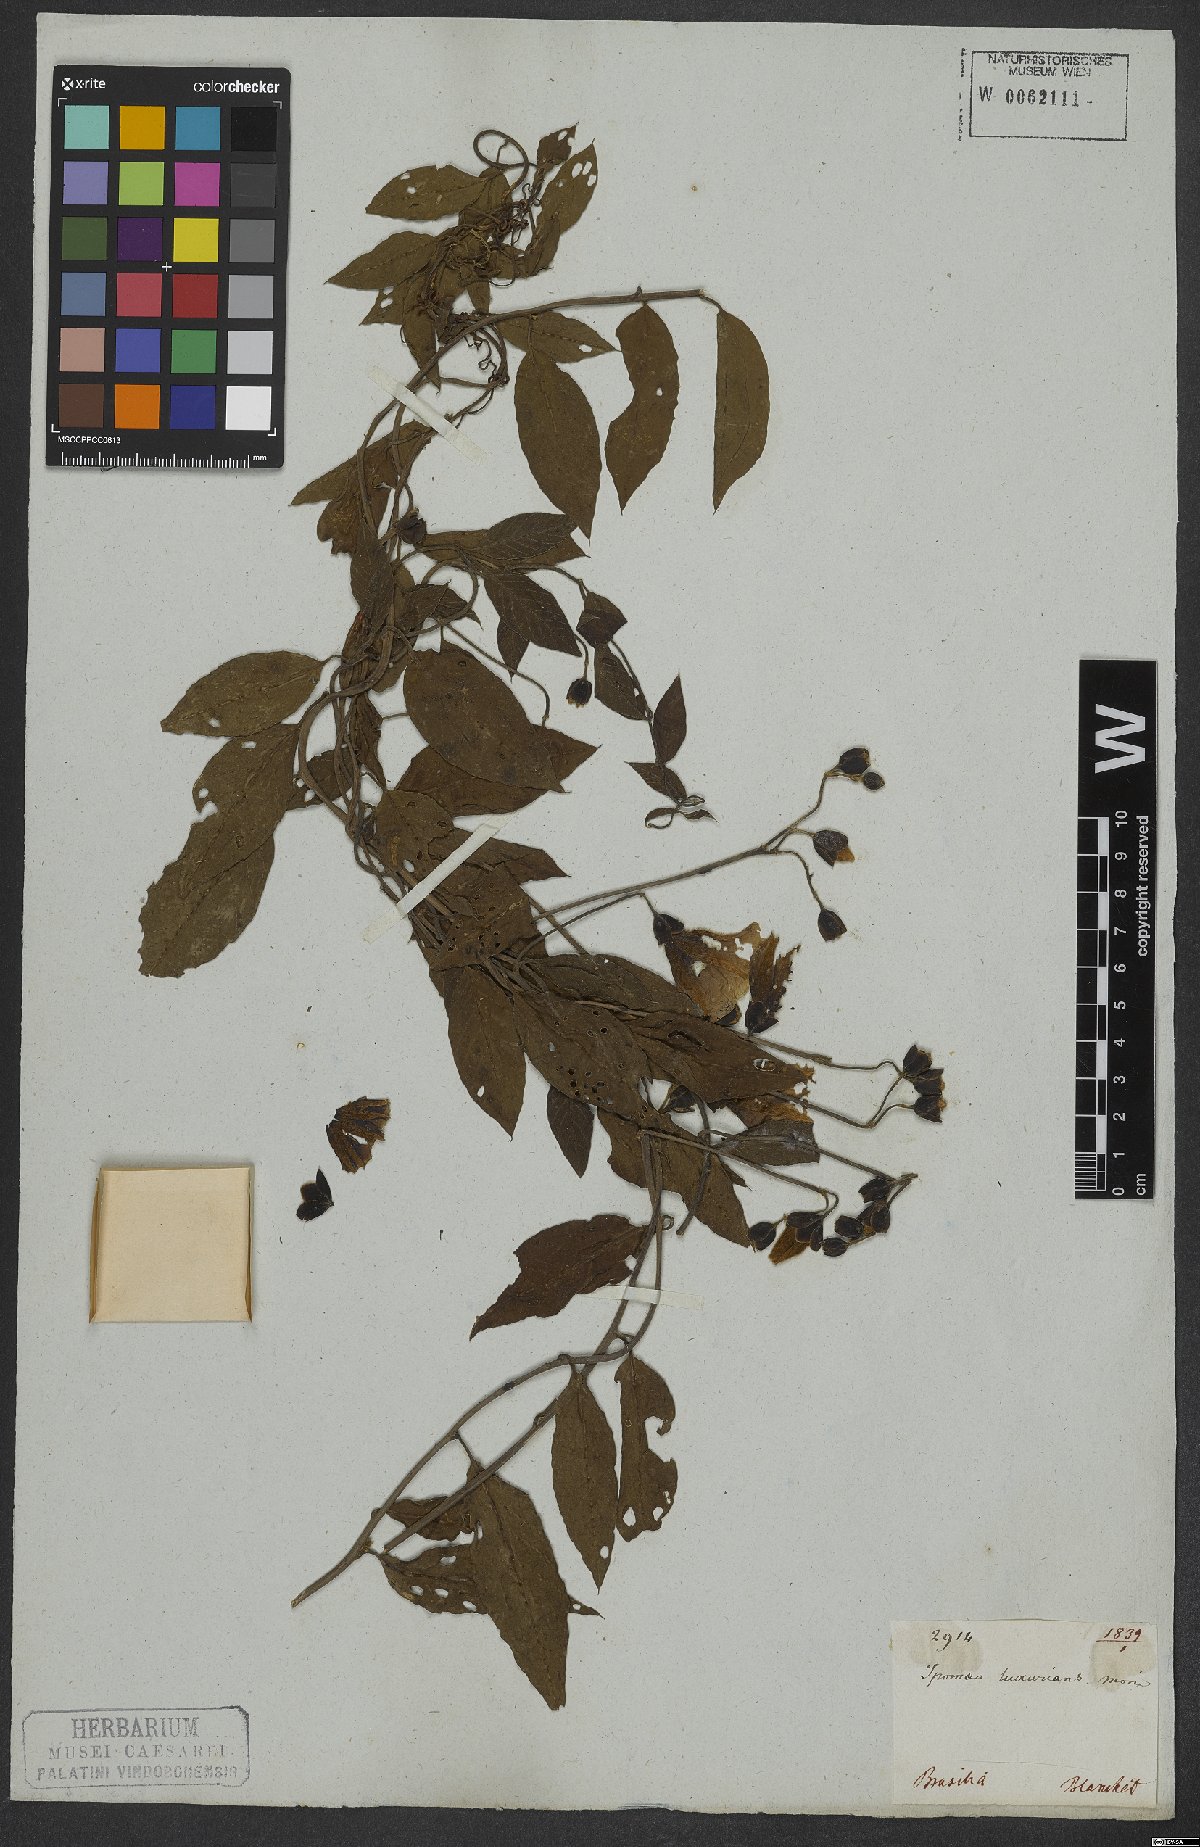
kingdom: Plantae
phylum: Tracheophyta
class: Magnoliopsida
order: Solanales
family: Convolvulaceae
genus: Aniseia
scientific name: Aniseia luxurians
